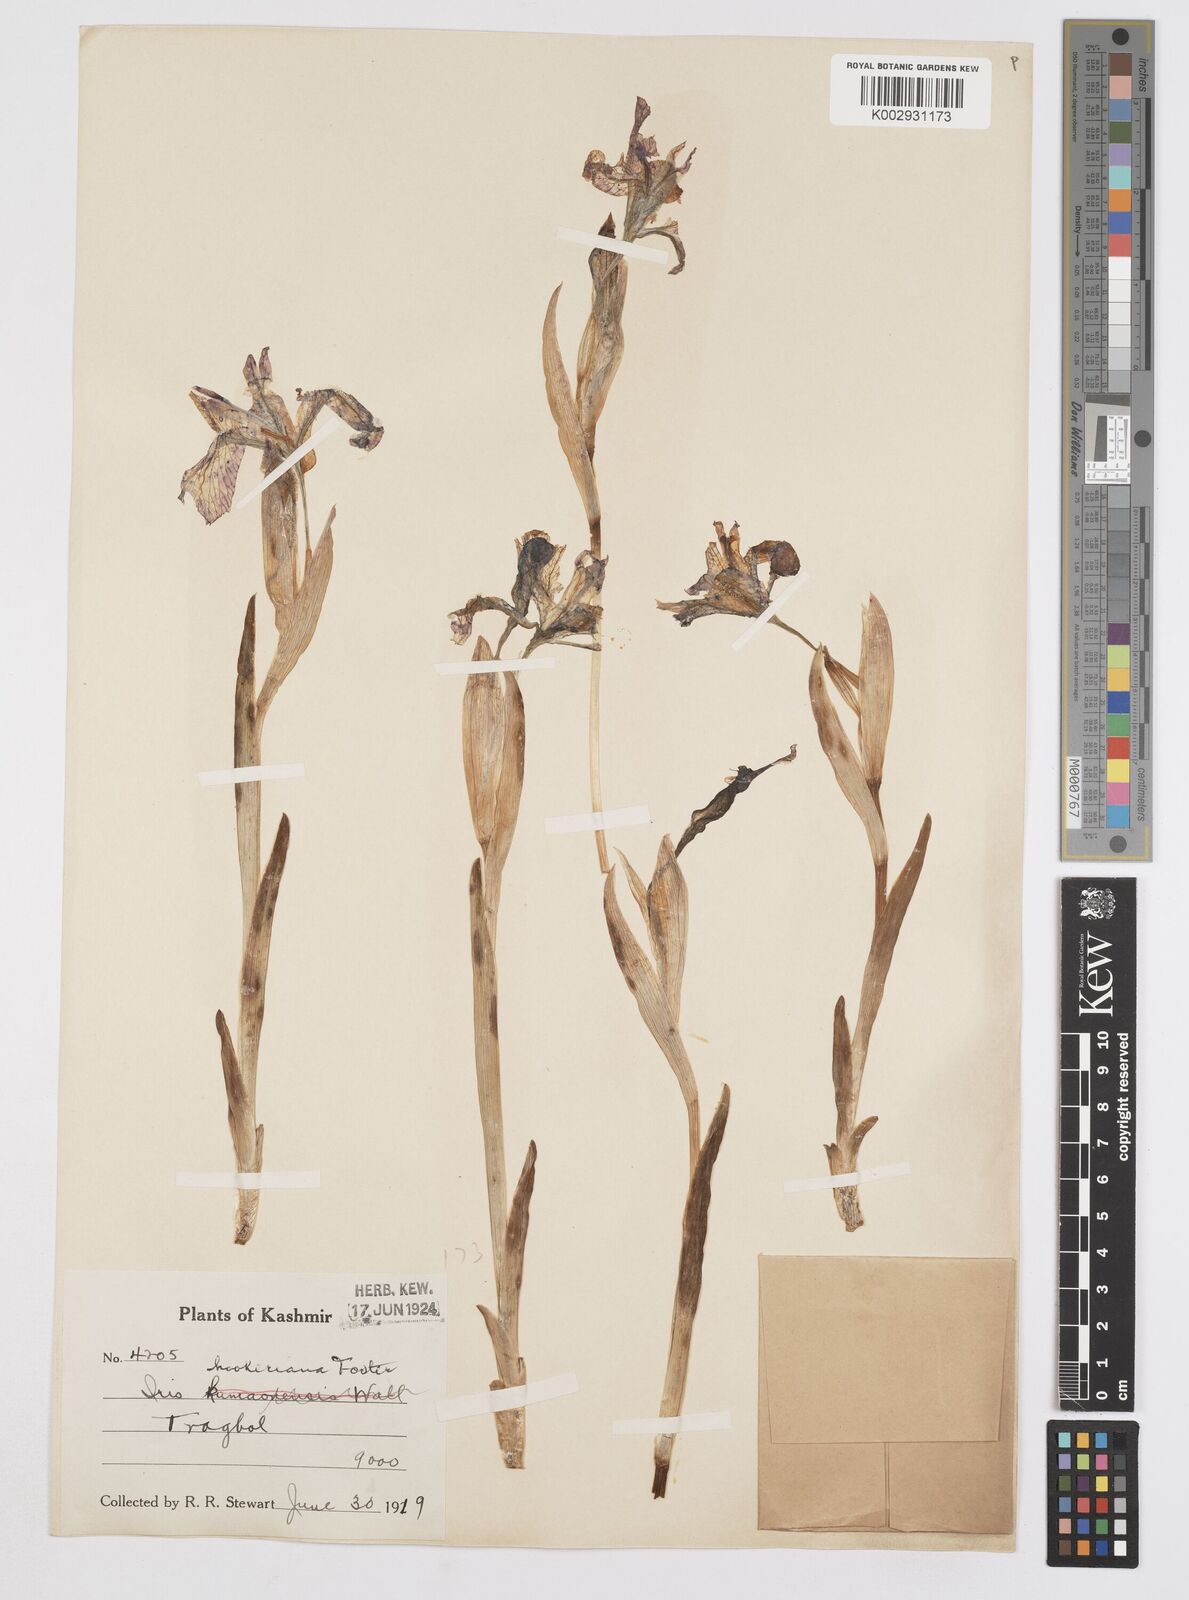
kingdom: Plantae
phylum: Tracheophyta
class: Liliopsida
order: Asparagales
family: Iridaceae
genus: Iris
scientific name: Iris kemaonensis
